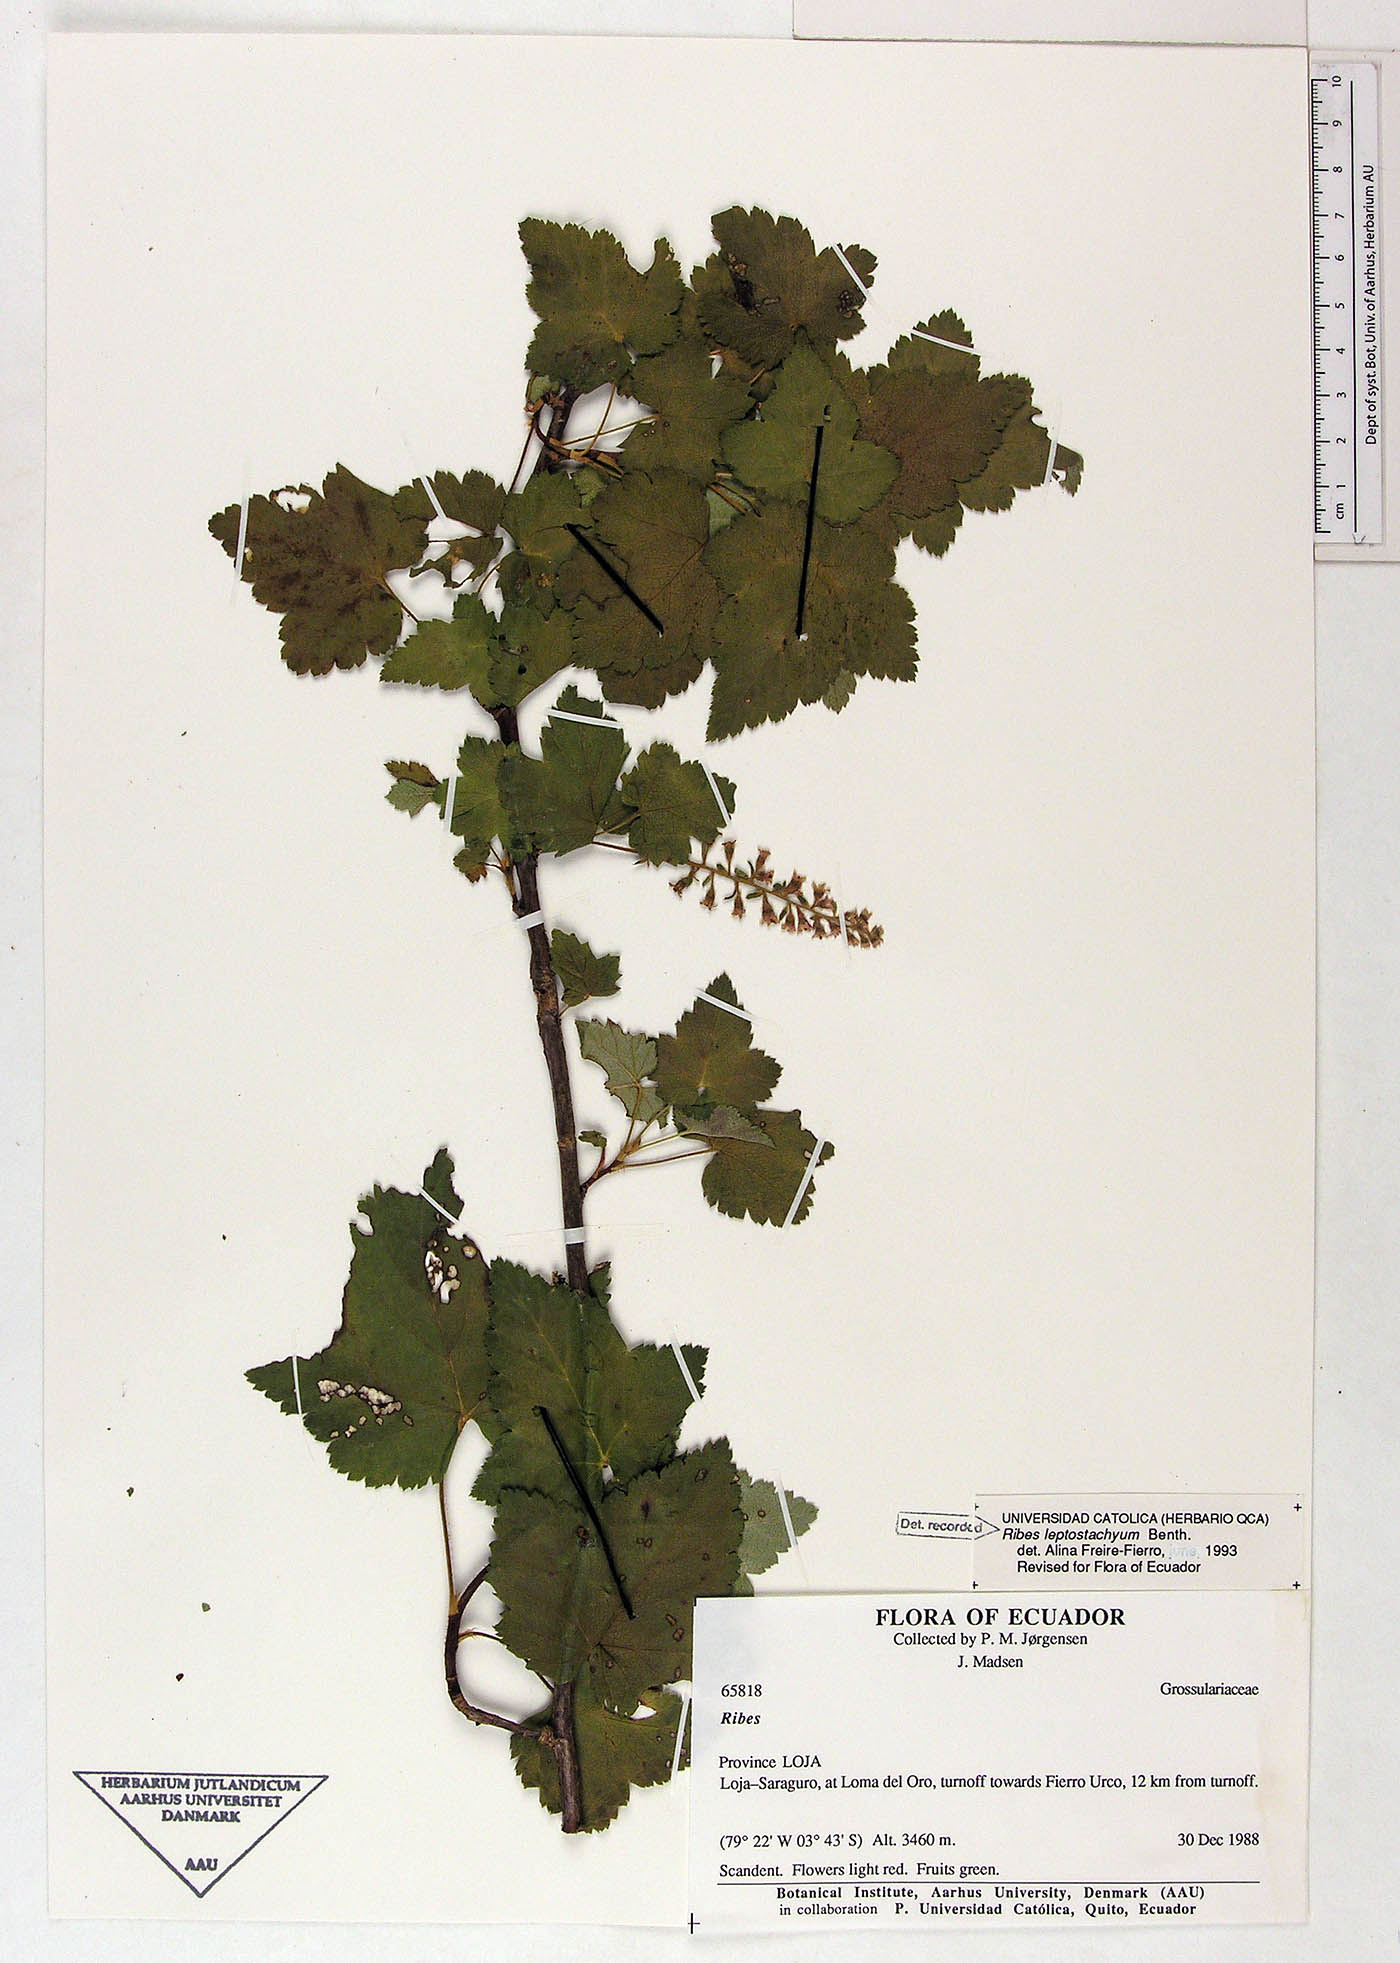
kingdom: Plantae
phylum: Tracheophyta
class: Magnoliopsida
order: Saxifragales
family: Grossulariaceae
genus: Ribes
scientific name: Ribes leptostachyum
